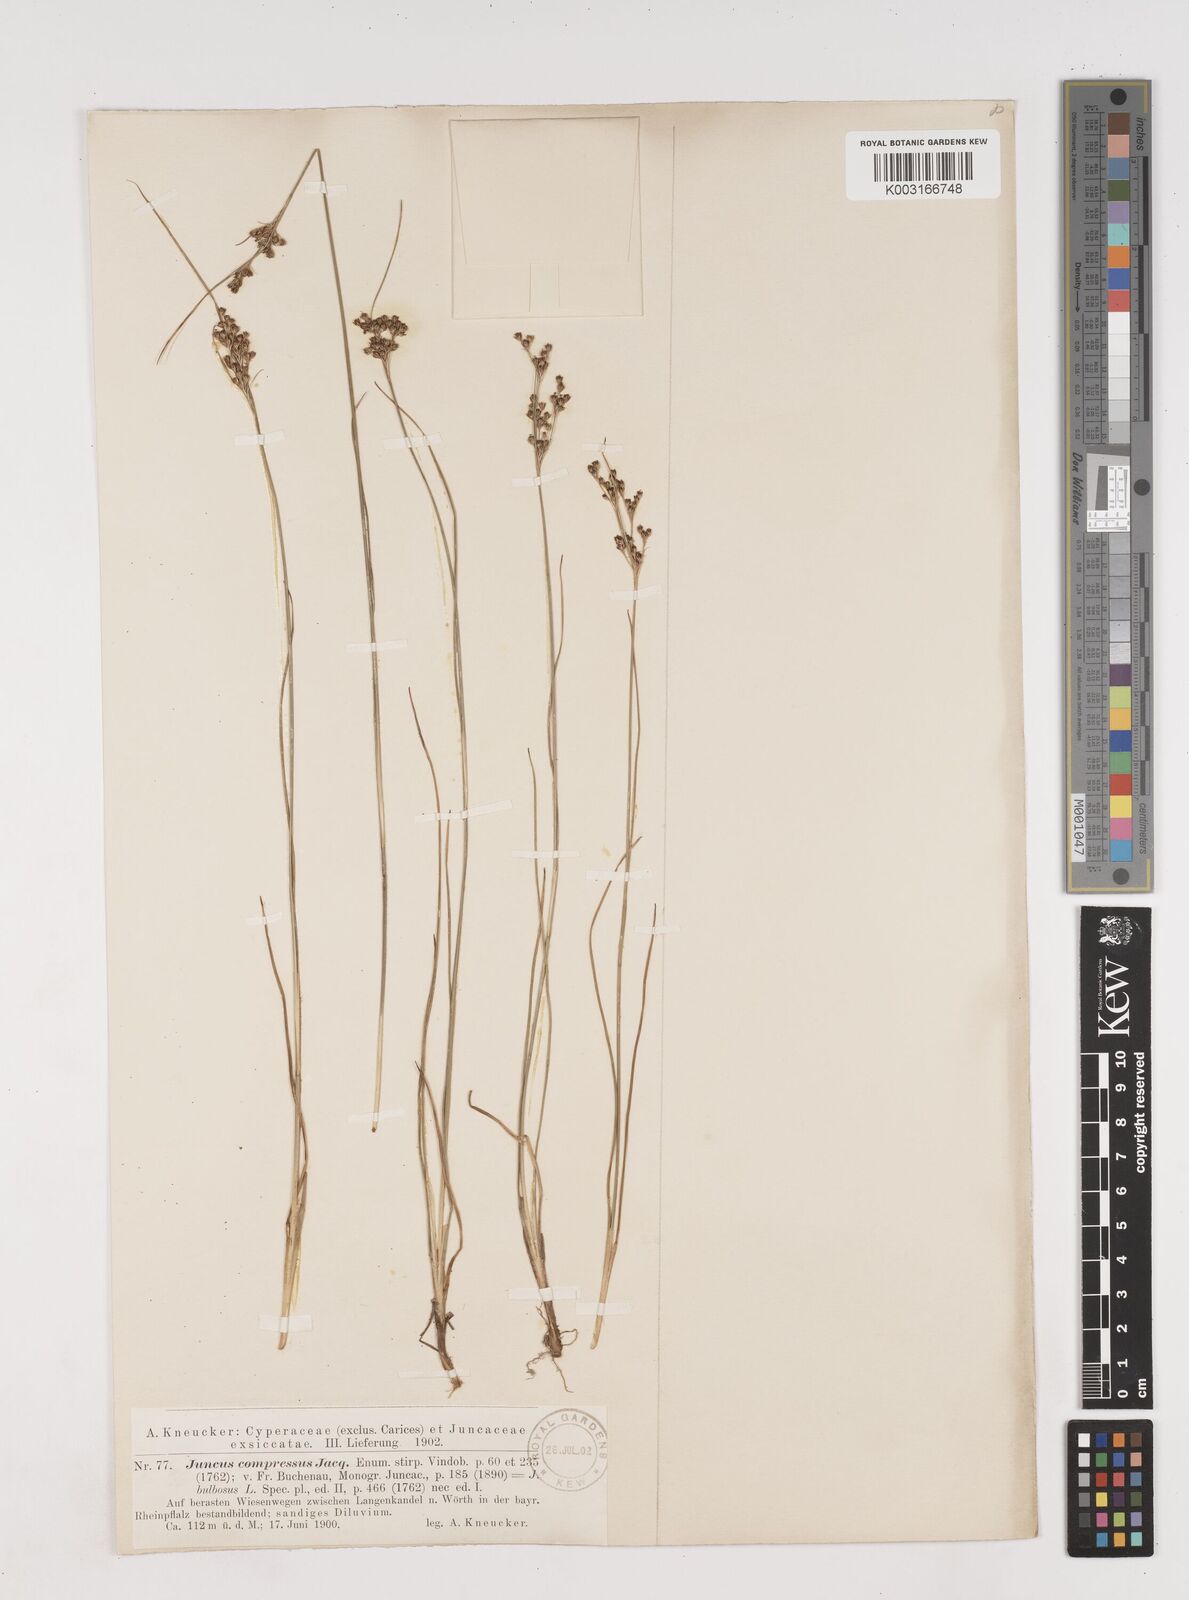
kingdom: Plantae
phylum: Tracheophyta
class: Liliopsida
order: Poales
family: Juncaceae
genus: Juncus
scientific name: Juncus
